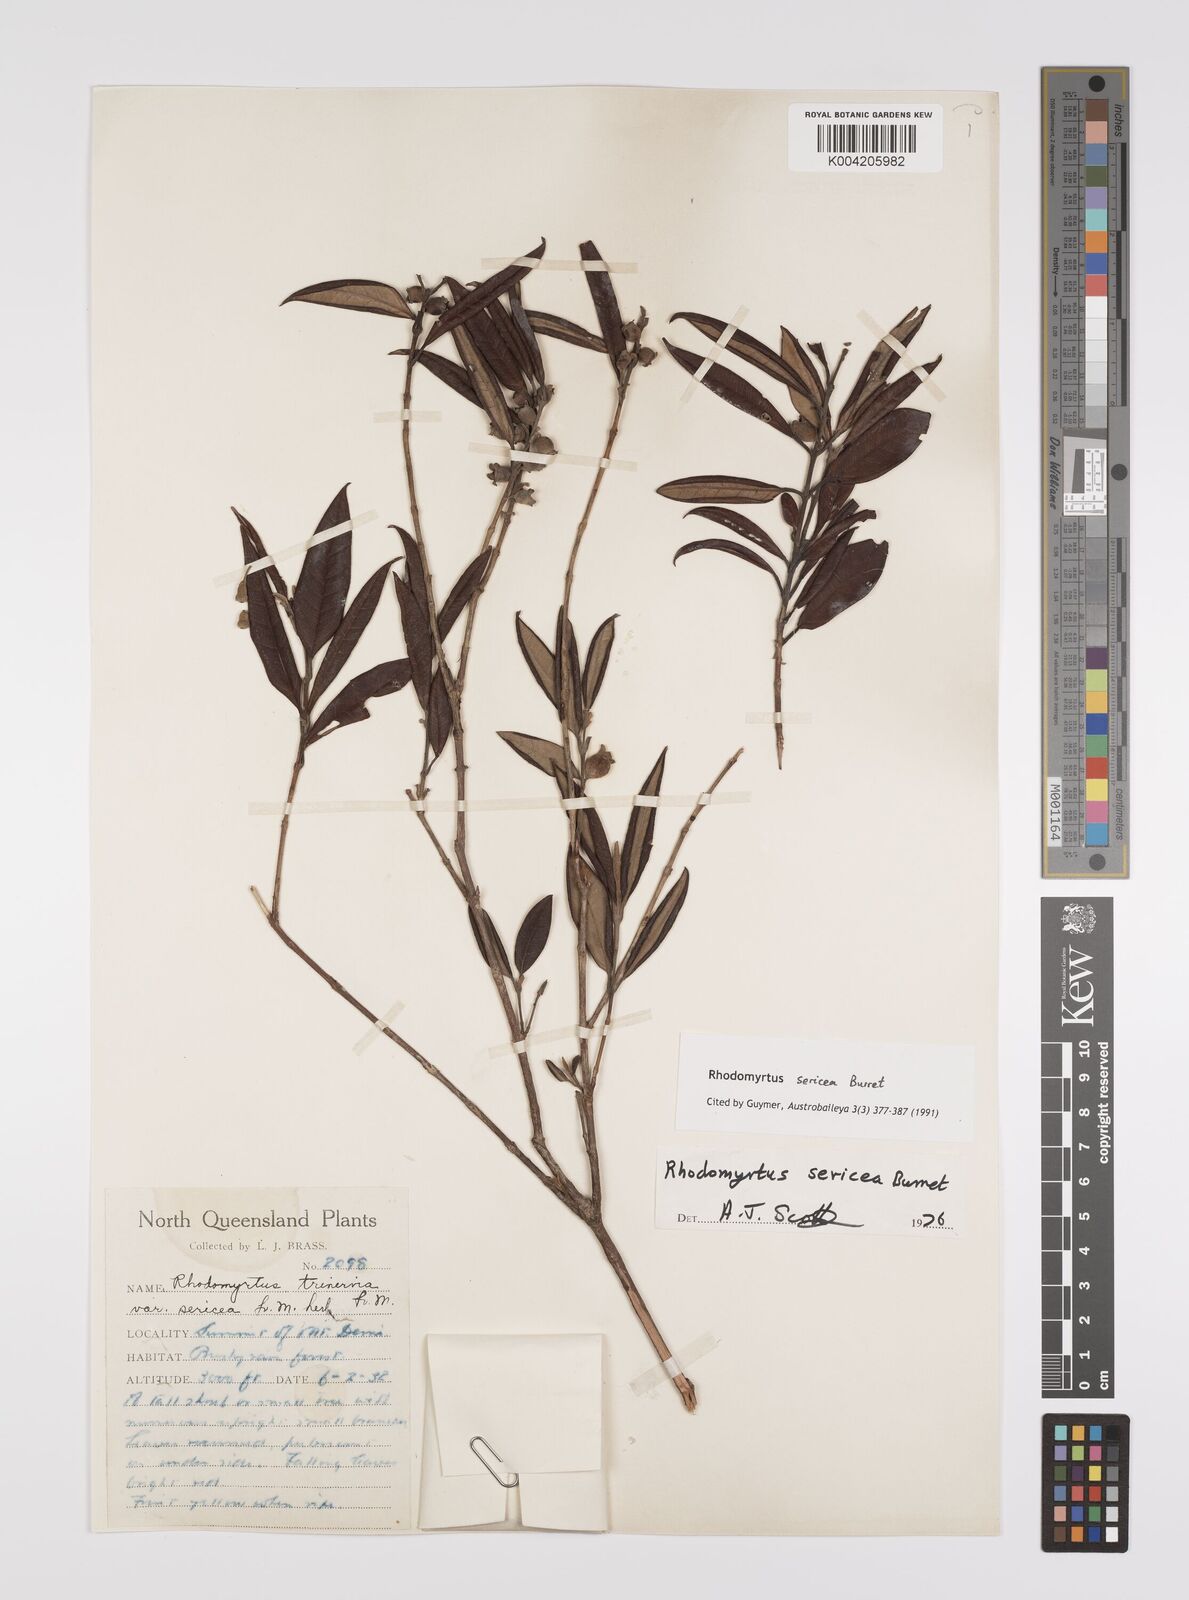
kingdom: Plantae
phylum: Tracheophyta
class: Magnoliopsida
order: Myrtales
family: Myrtaceae
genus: Rhodomyrtus
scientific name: Rhodomyrtus sericea
